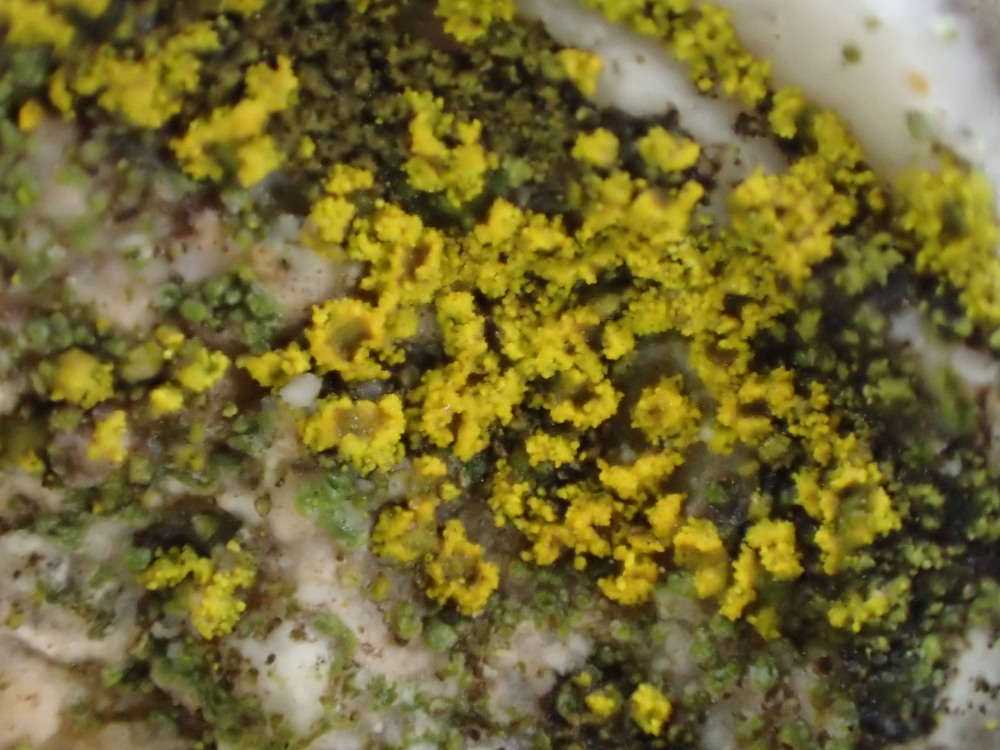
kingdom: Fungi
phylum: Ascomycota
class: Lecanoromycetes
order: Teloschistales
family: Teloschistaceae
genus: Flavoplaca
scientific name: Flavoplaca flavocitrina
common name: grynskællet orangelav
